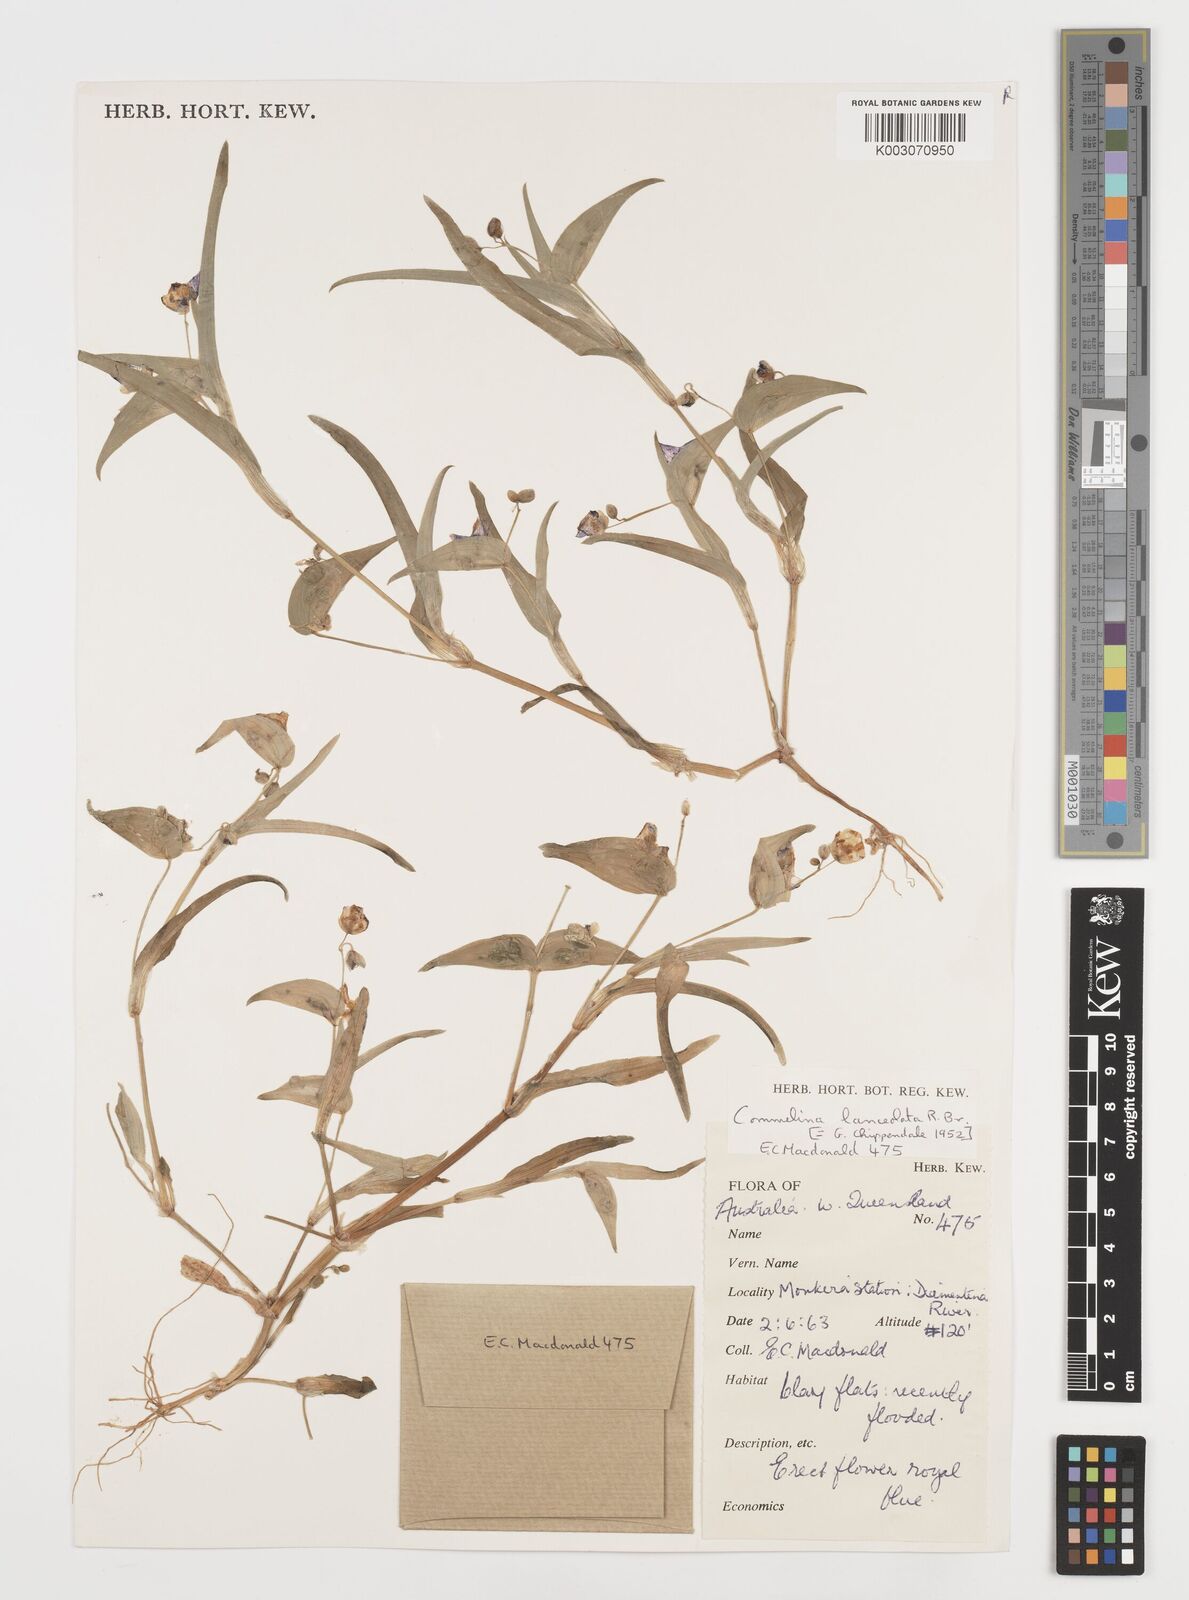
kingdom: Plantae
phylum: Tracheophyta
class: Liliopsida
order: Commelinales
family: Commelinaceae
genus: Commelina
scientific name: Commelina lanceolata
